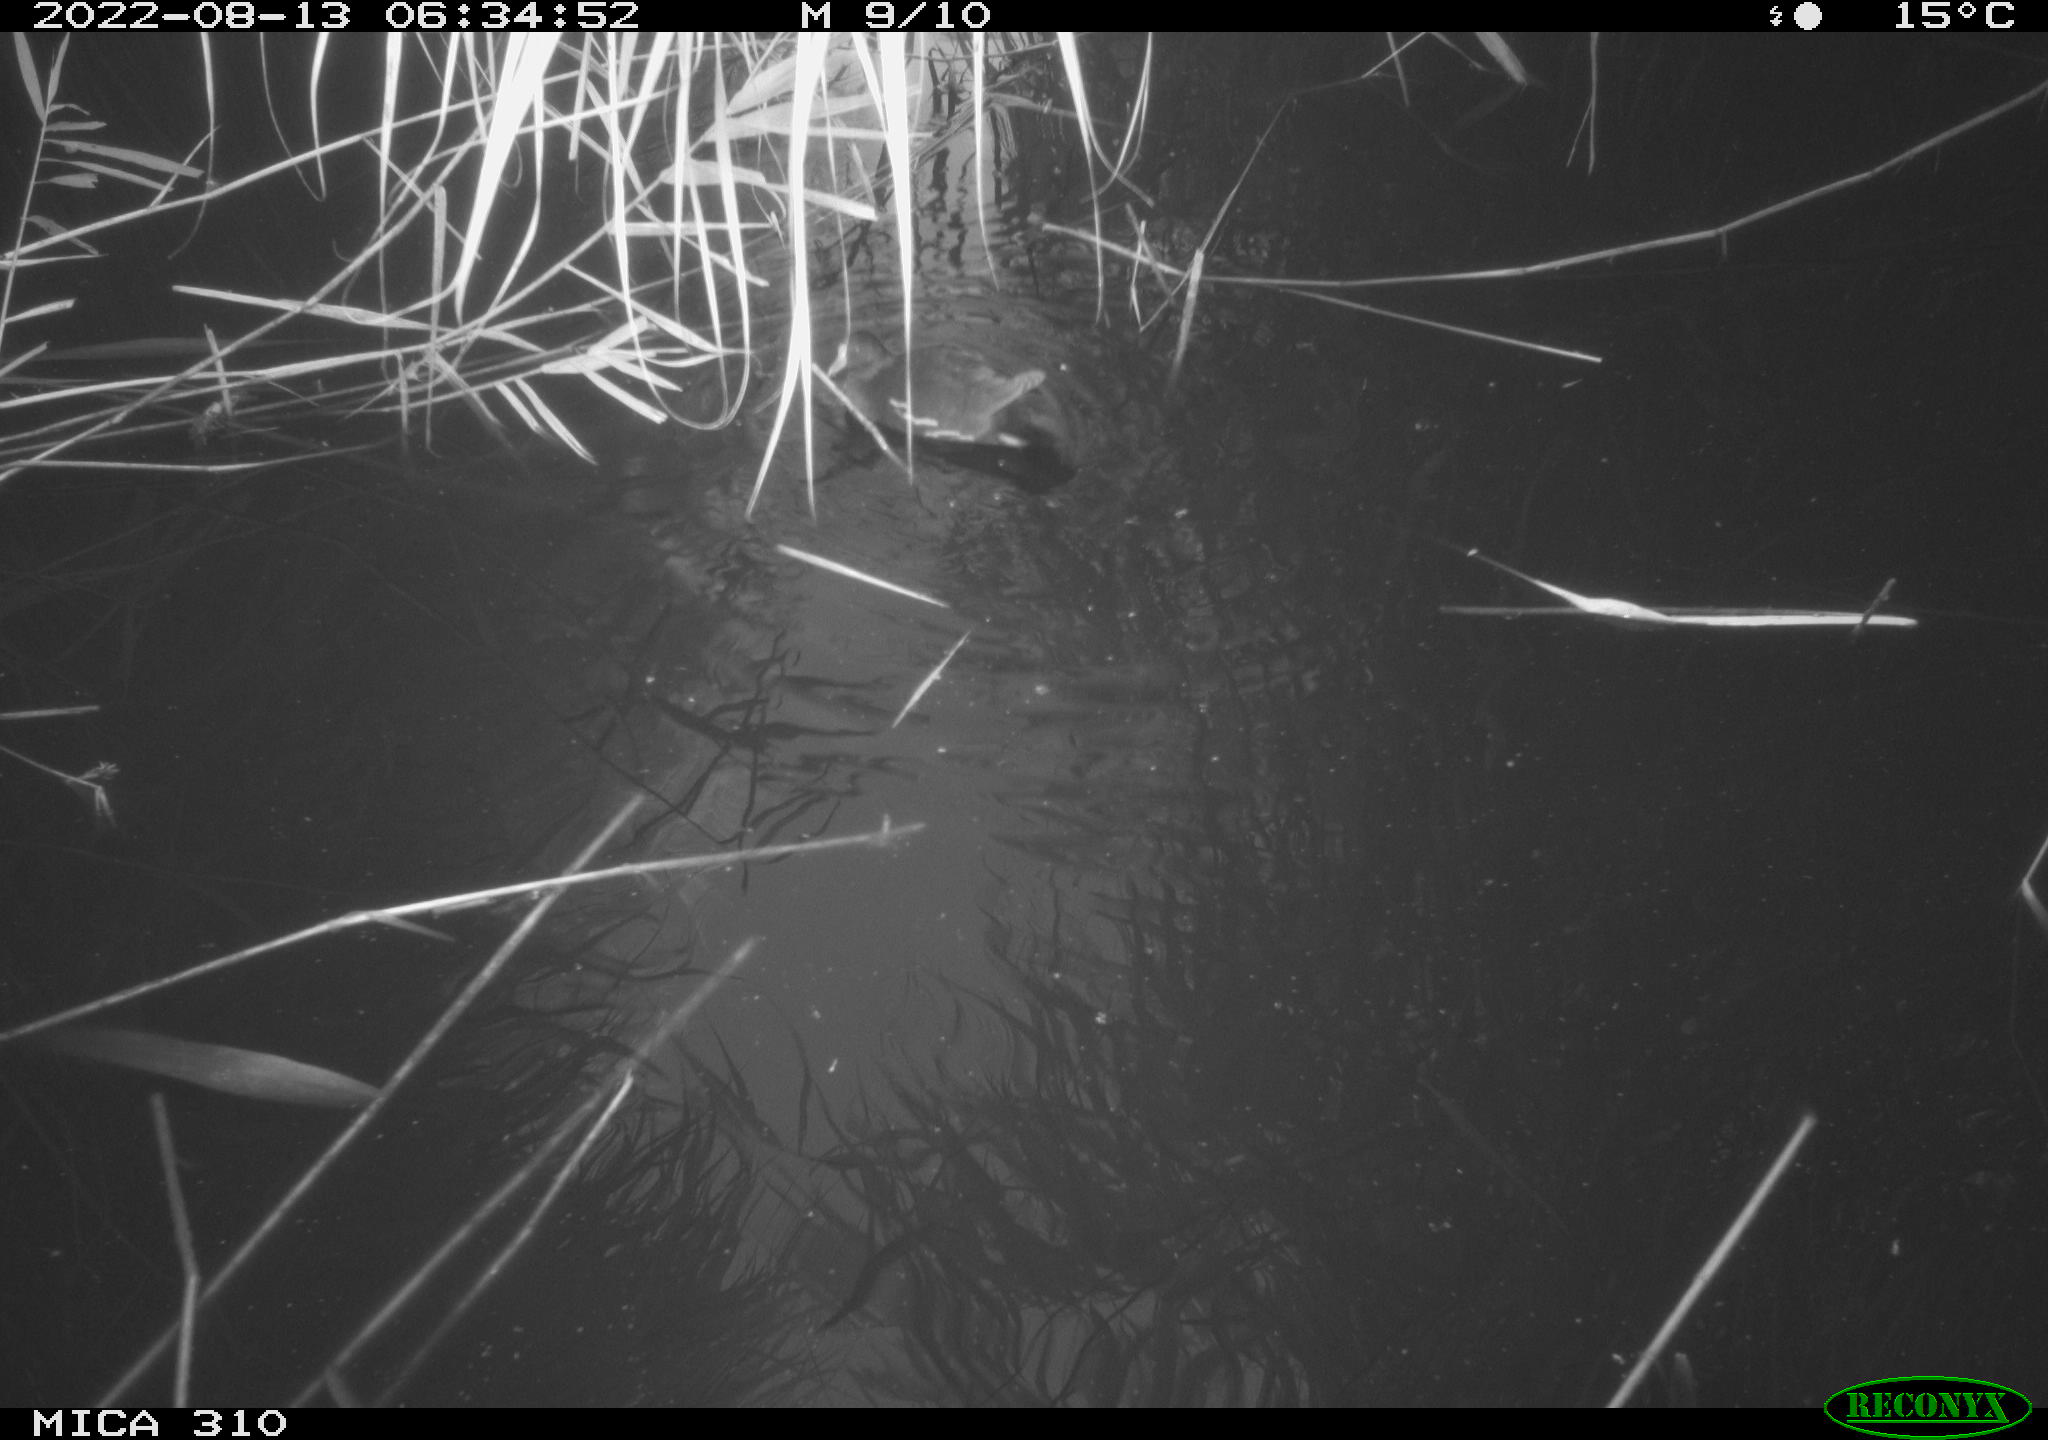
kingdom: Animalia
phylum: Chordata
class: Aves
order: Gruiformes
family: Rallidae
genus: Gallinula
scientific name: Gallinula chloropus
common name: Common moorhen
